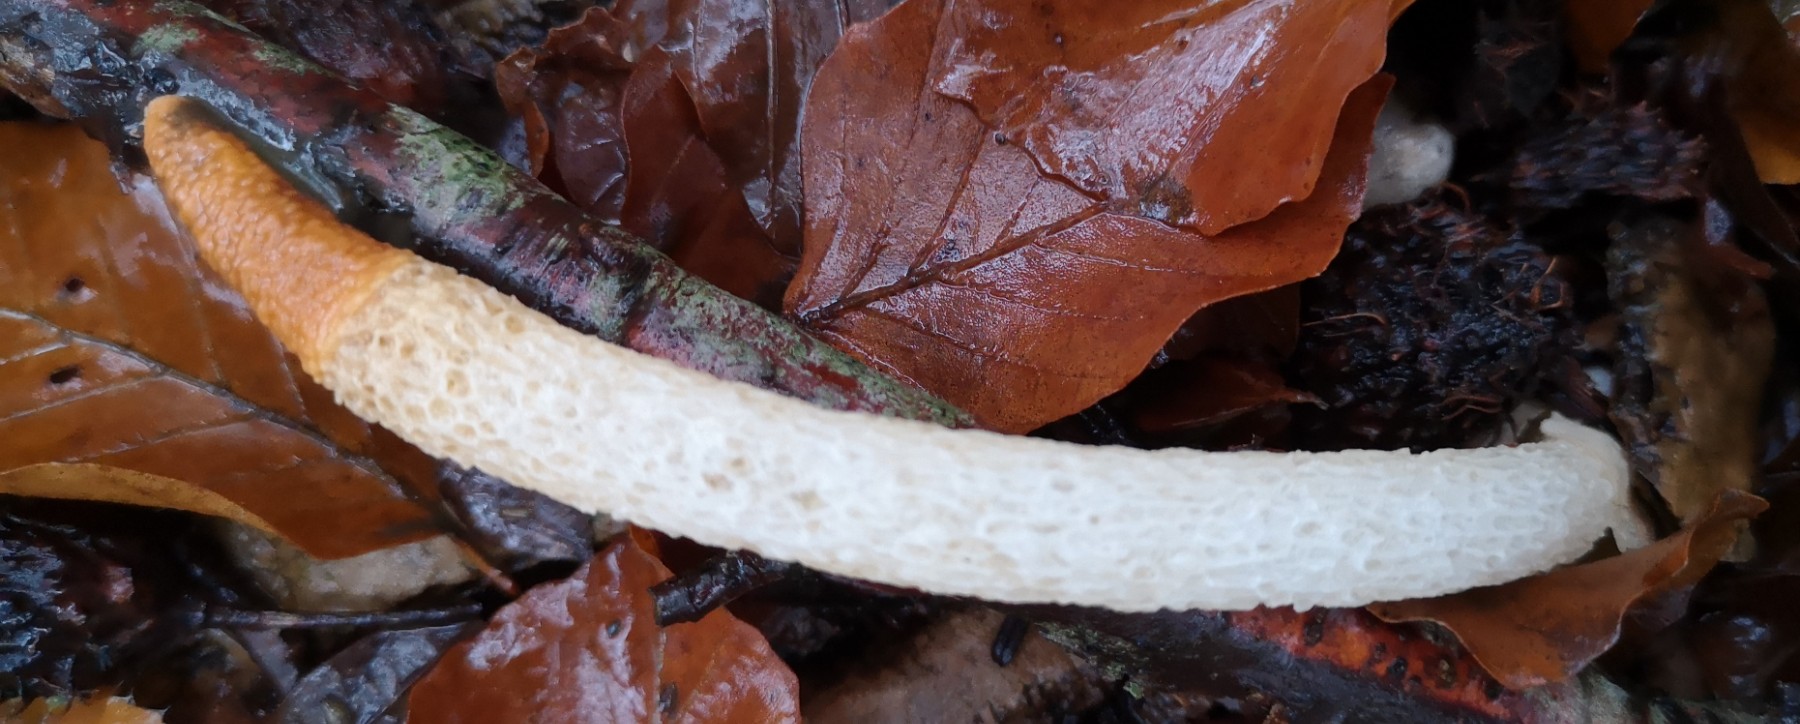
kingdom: Fungi
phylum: Basidiomycota
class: Agaricomycetes
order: Phallales
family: Phallaceae
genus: Mutinus
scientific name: Mutinus caninus
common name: hunde-stinksvamp
